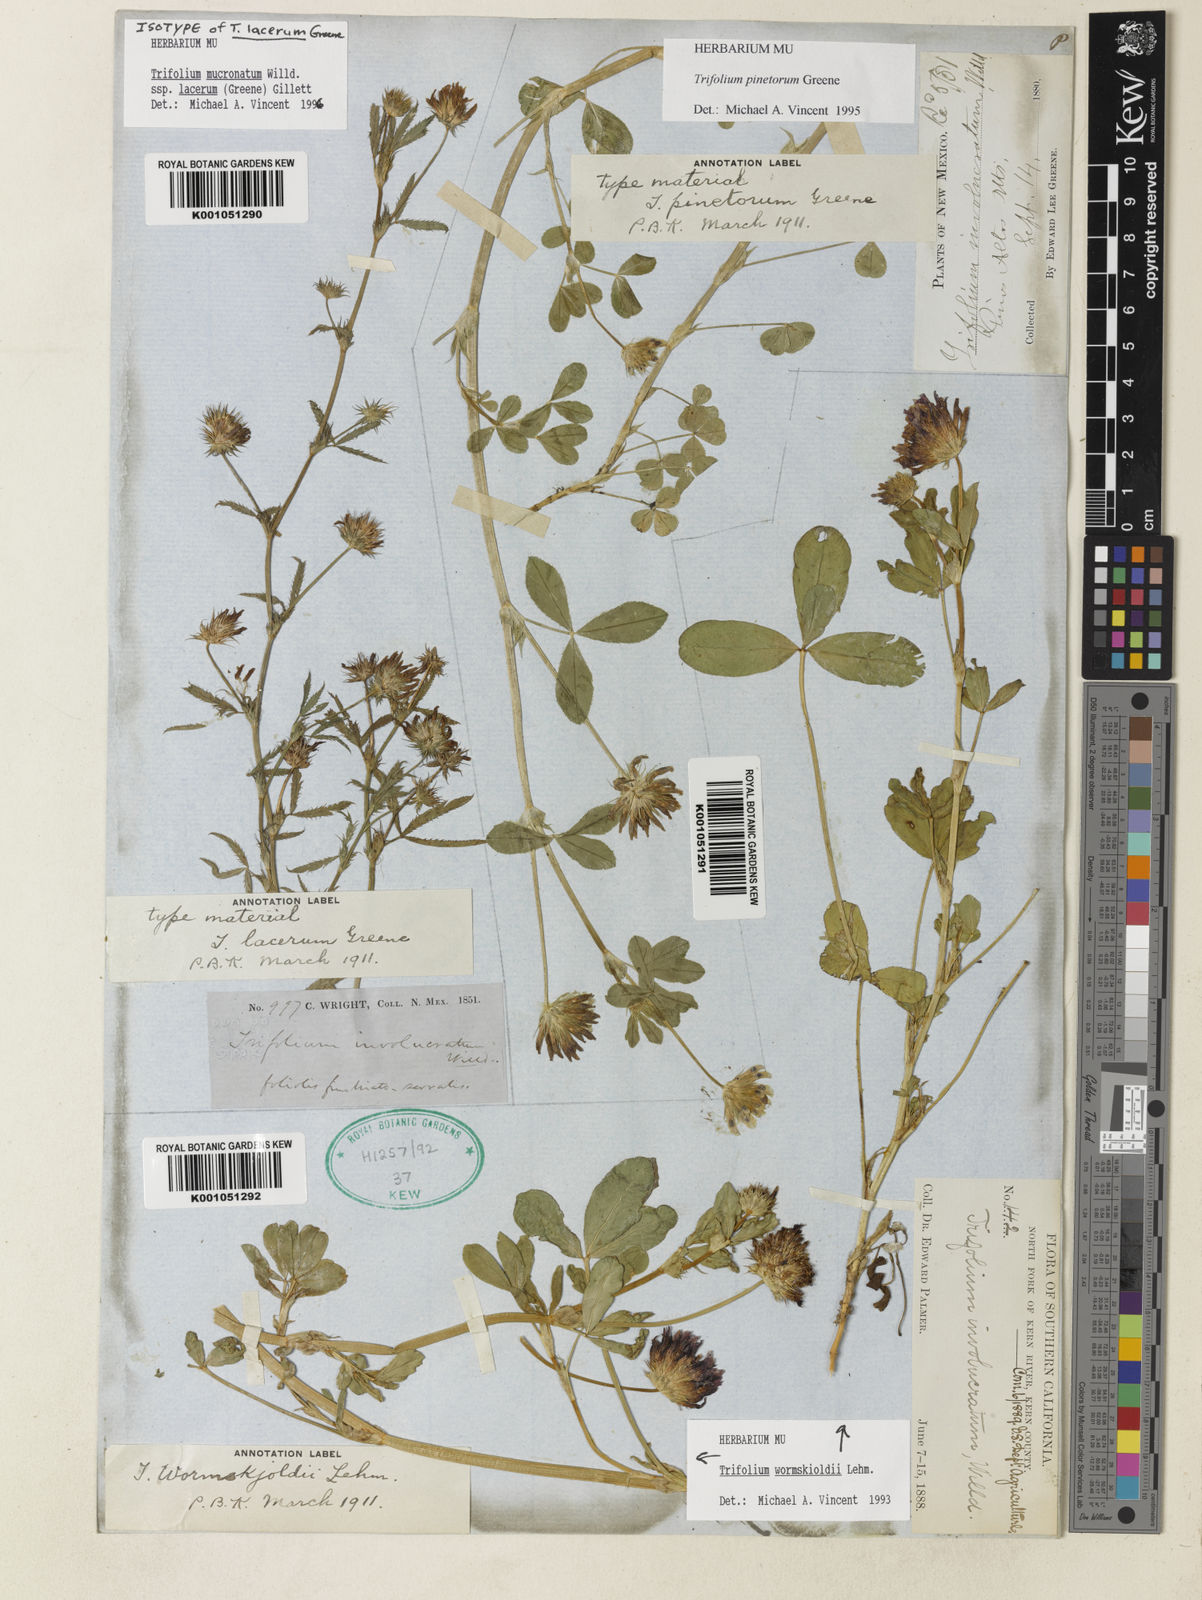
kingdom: Plantae
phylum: Tracheophyta
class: Magnoliopsida
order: Fabales
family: Fabaceae
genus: Trifolium
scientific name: Trifolium triaristatum
